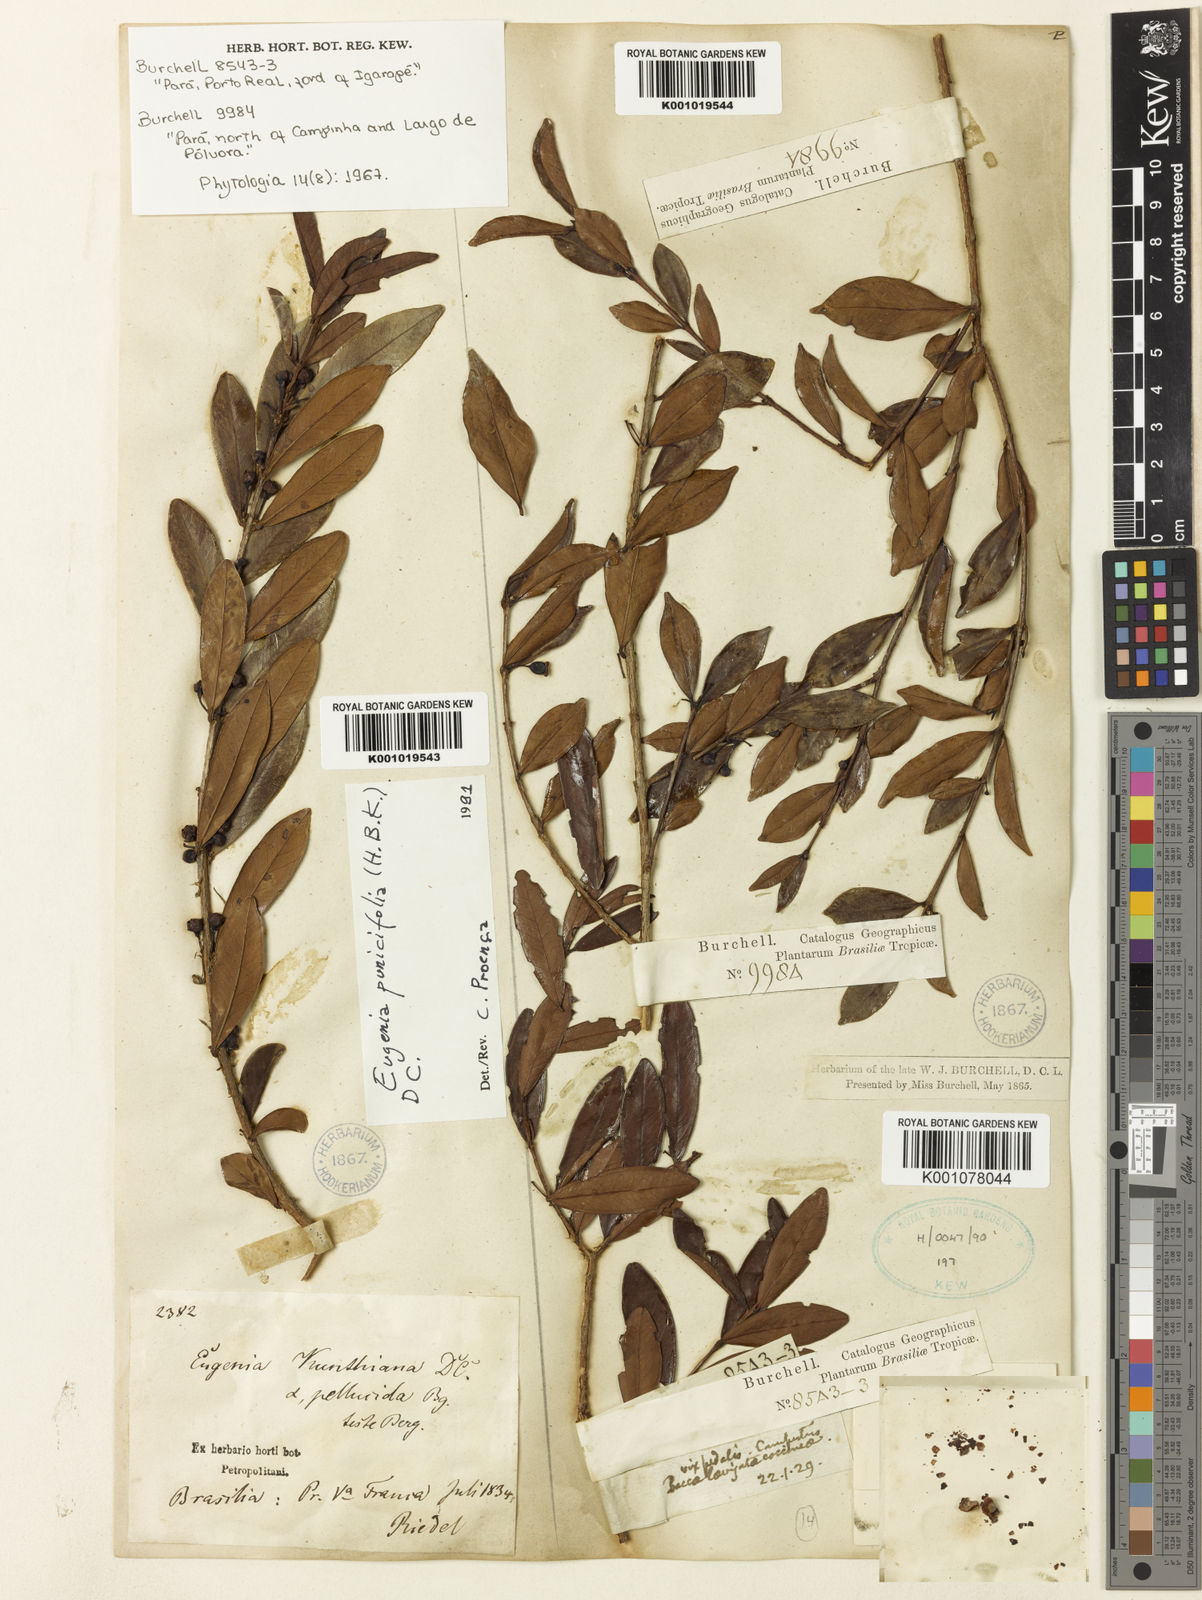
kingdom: Plantae
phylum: Tracheophyta
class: Magnoliopsida
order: Myrtales
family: Myrtaceae
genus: Eugenia
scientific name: Eugenia punicifolia
